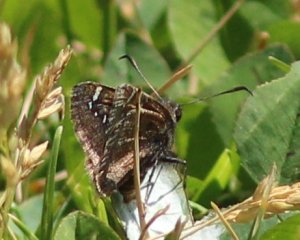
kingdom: Animalia
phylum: Arthropoda
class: Insecta
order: Lepidoptera
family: Hesperiidae
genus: Thorybes
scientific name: Thorybes mexicana
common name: Mexican Cloudywing
